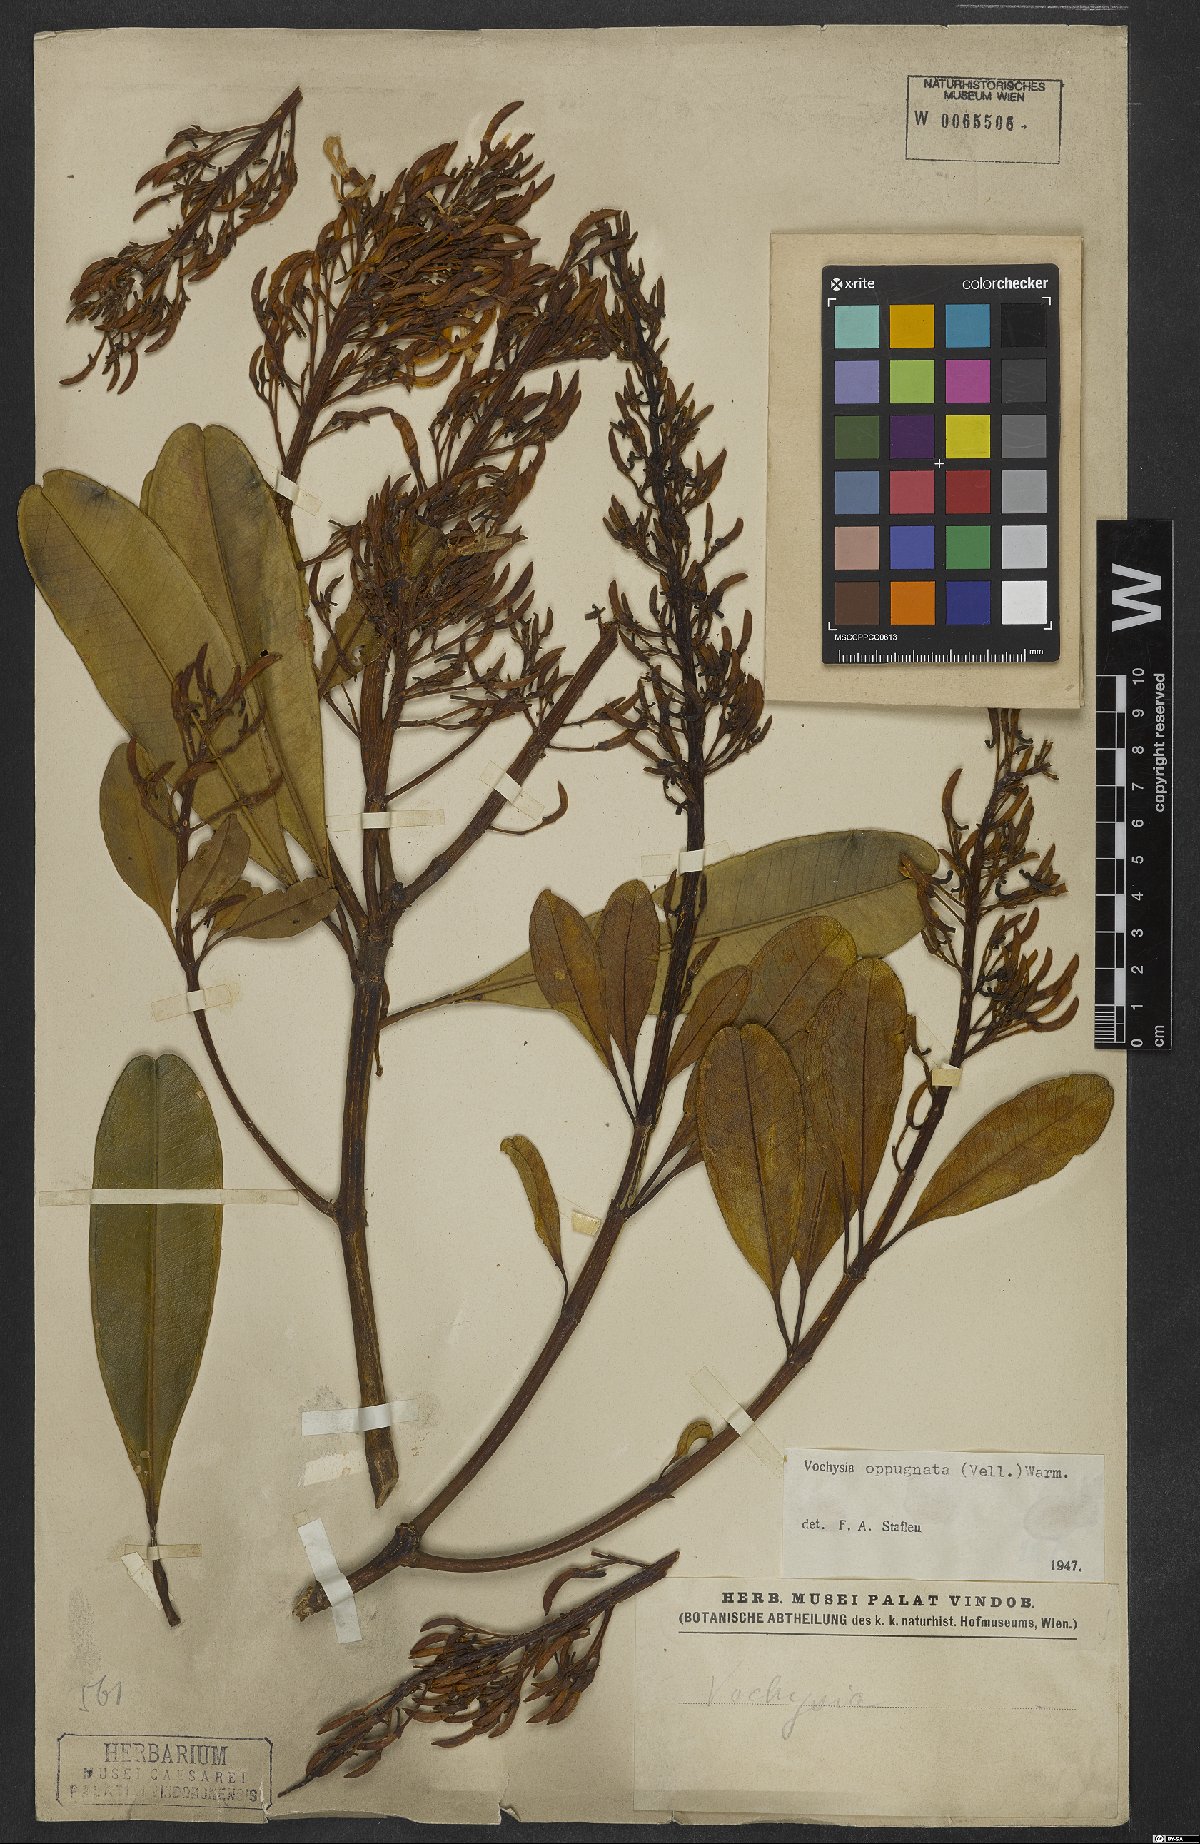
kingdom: Plantae
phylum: Tracheophyta
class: Magnoliopsida
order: Myrtales
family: Vochysiaceae
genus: Vochysia
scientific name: Vochysia oppugnata
